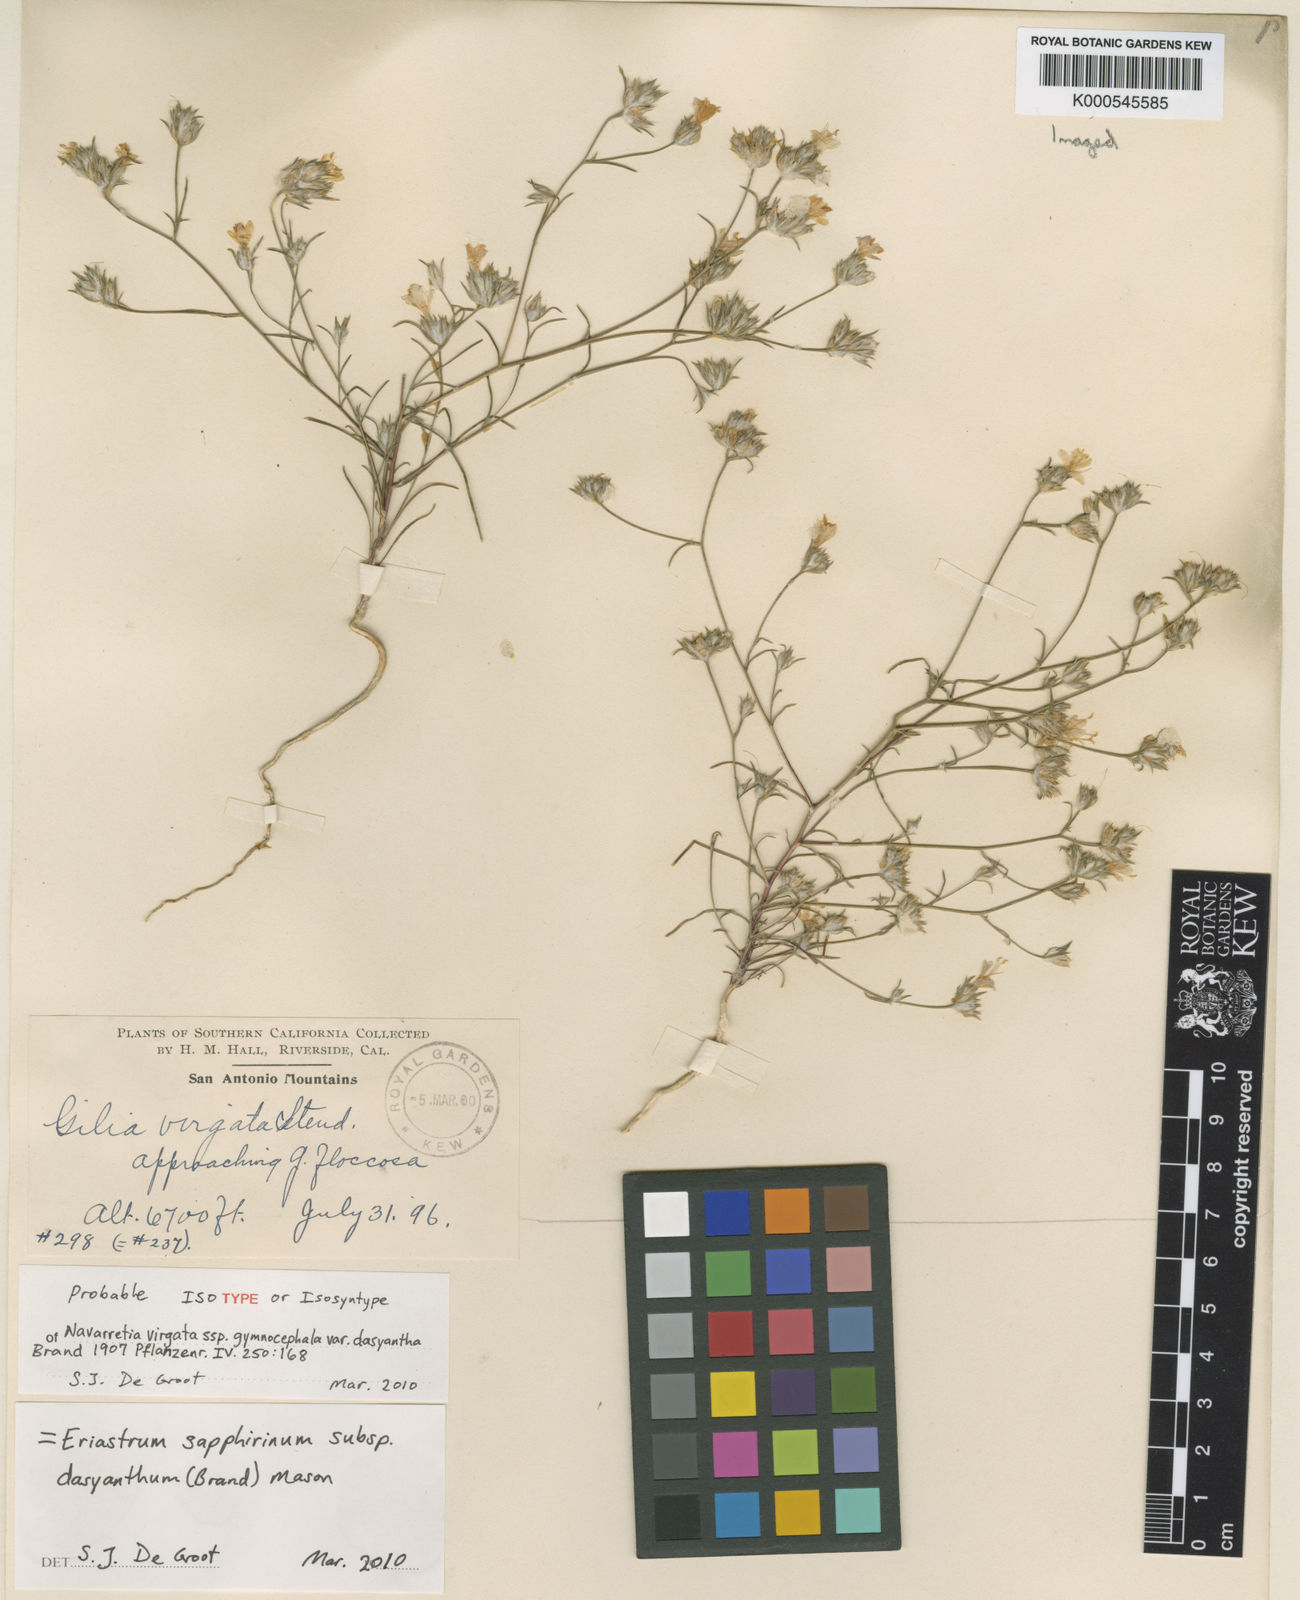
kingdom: Plantae
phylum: Tracheophyta
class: Magnoliopsida
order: Ericales
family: Polemoniaceae
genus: Eriastrum
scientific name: Eriastrum sapphirinum
